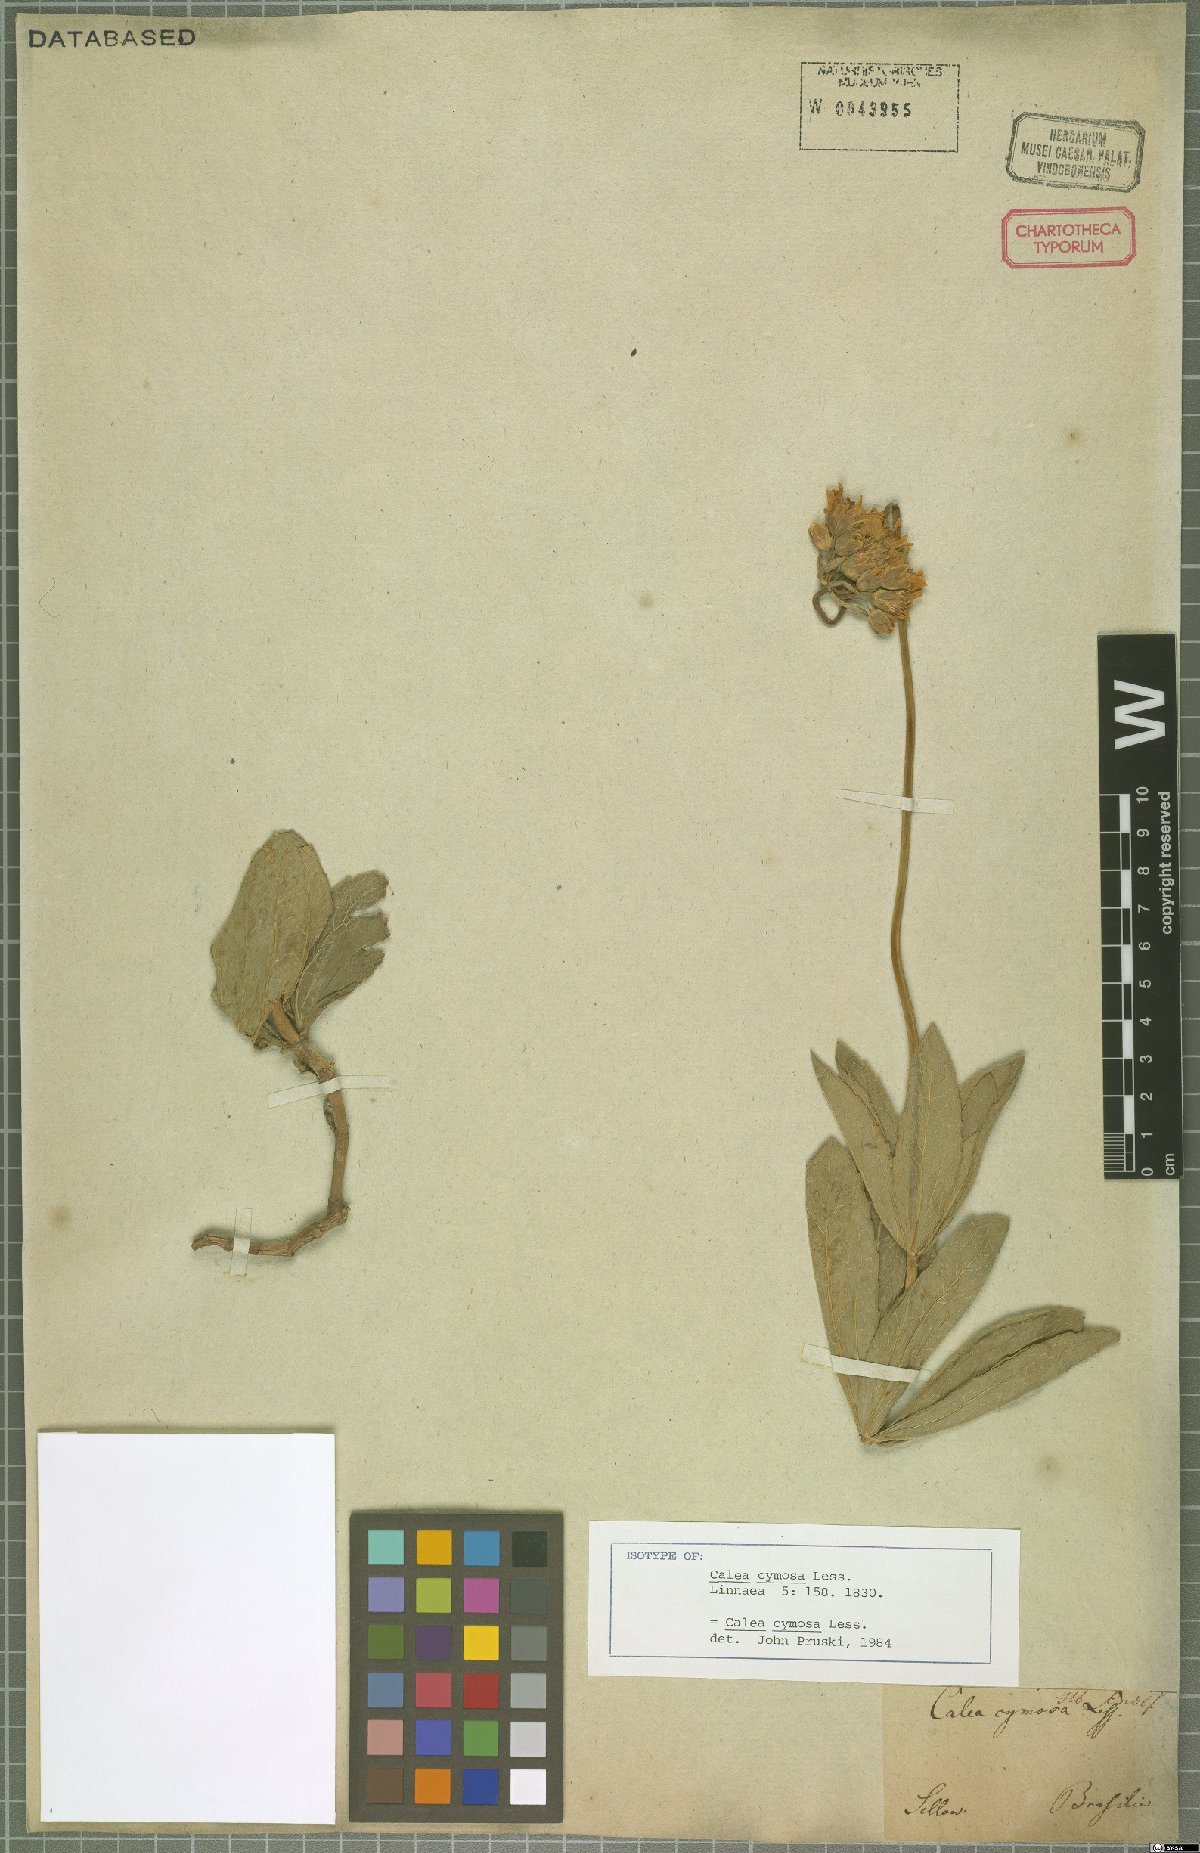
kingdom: Plantae
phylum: Tracheophyta
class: Magnoliopsida
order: Asterales
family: Asteraceae
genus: Calea
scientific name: Calea cymosa
